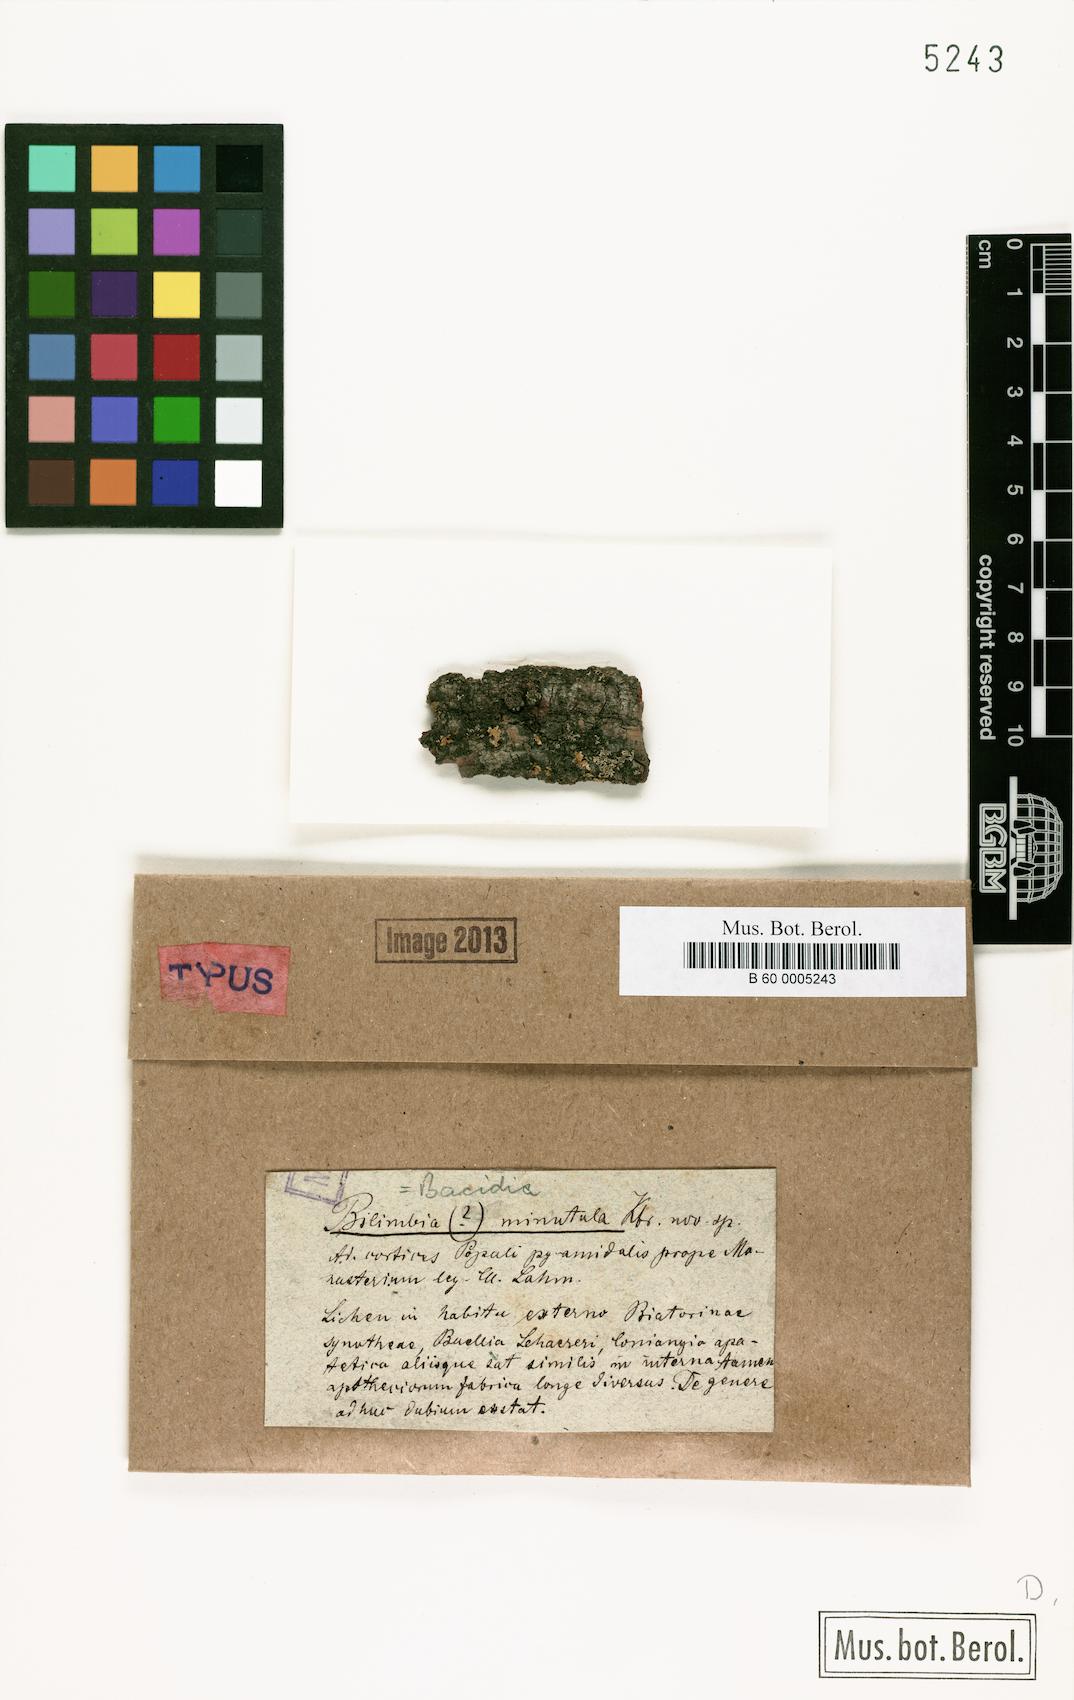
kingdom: Fungi
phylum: Ascomycota
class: Lecanoromycetes
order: Lecanorales
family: Ramalinaceae
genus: Bacidia
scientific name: Bacidia minutula
